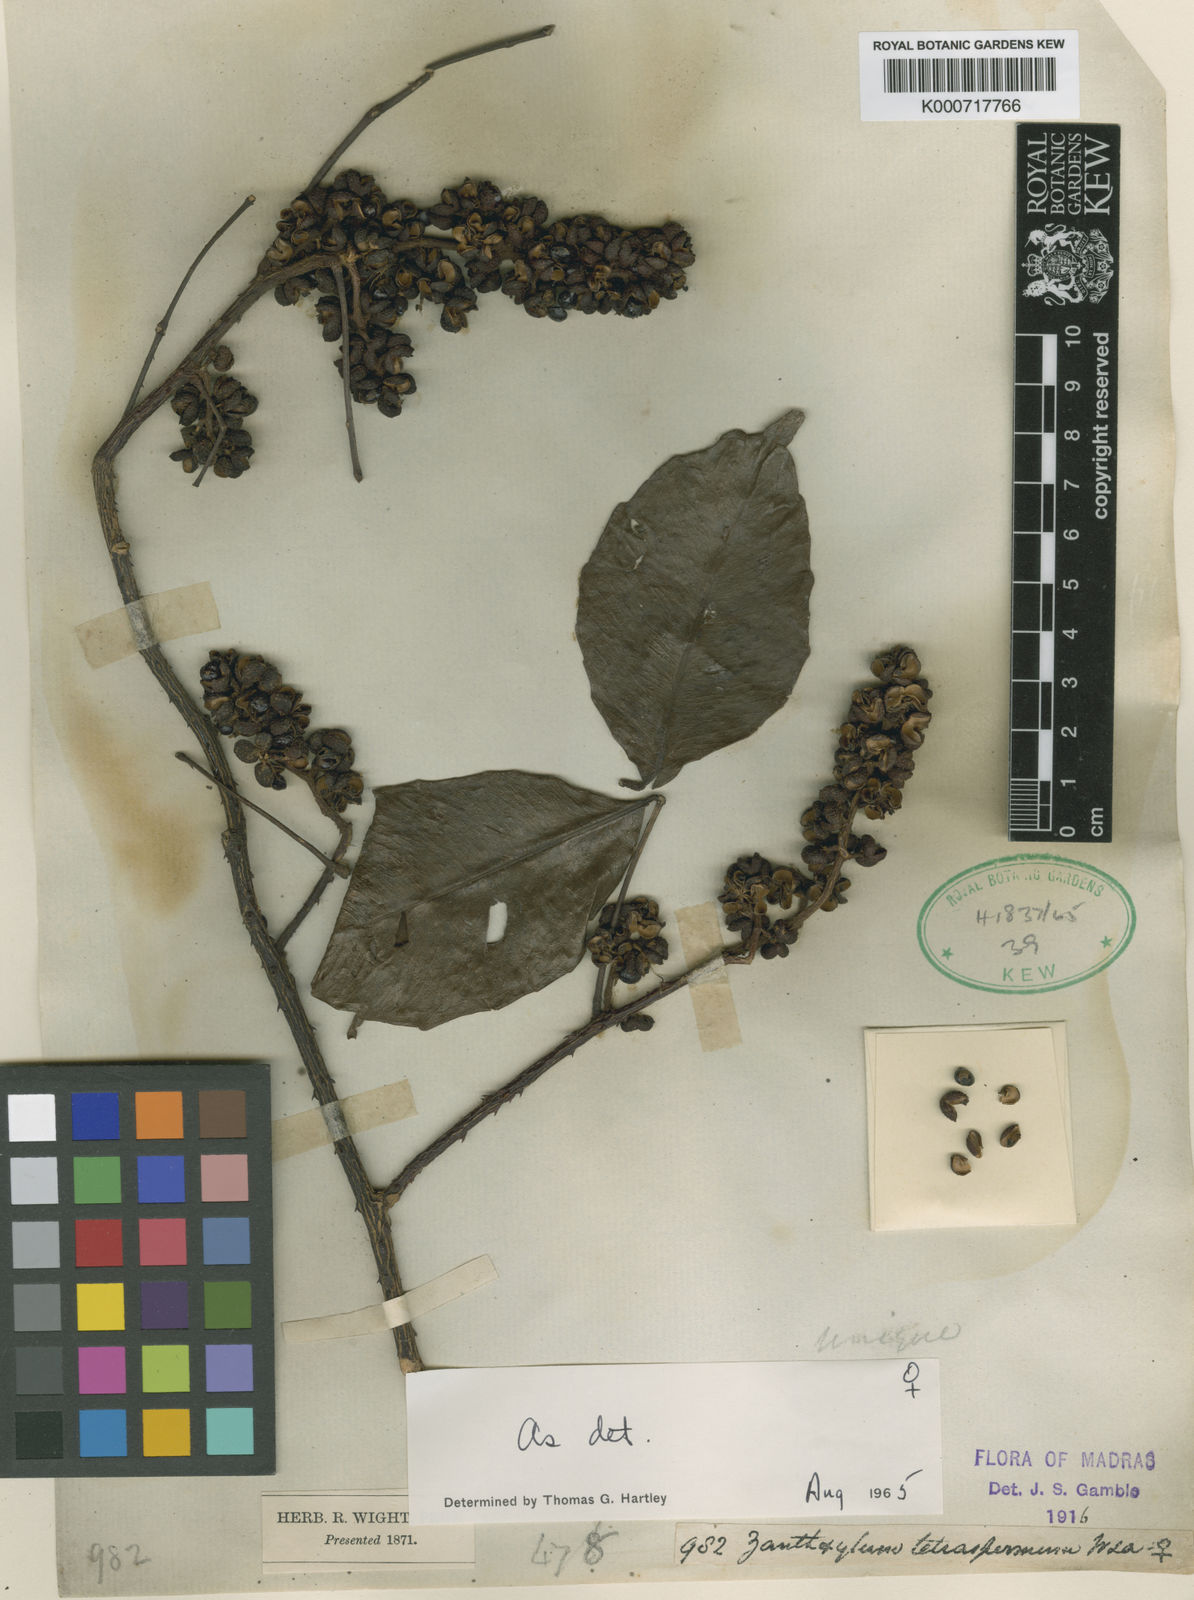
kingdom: Plantae
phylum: Tracheophyta
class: Magnoliopsida
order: Sapindales
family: Rutaceae
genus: Zanthoxylum
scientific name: Zanthoxylum tetraspermum
